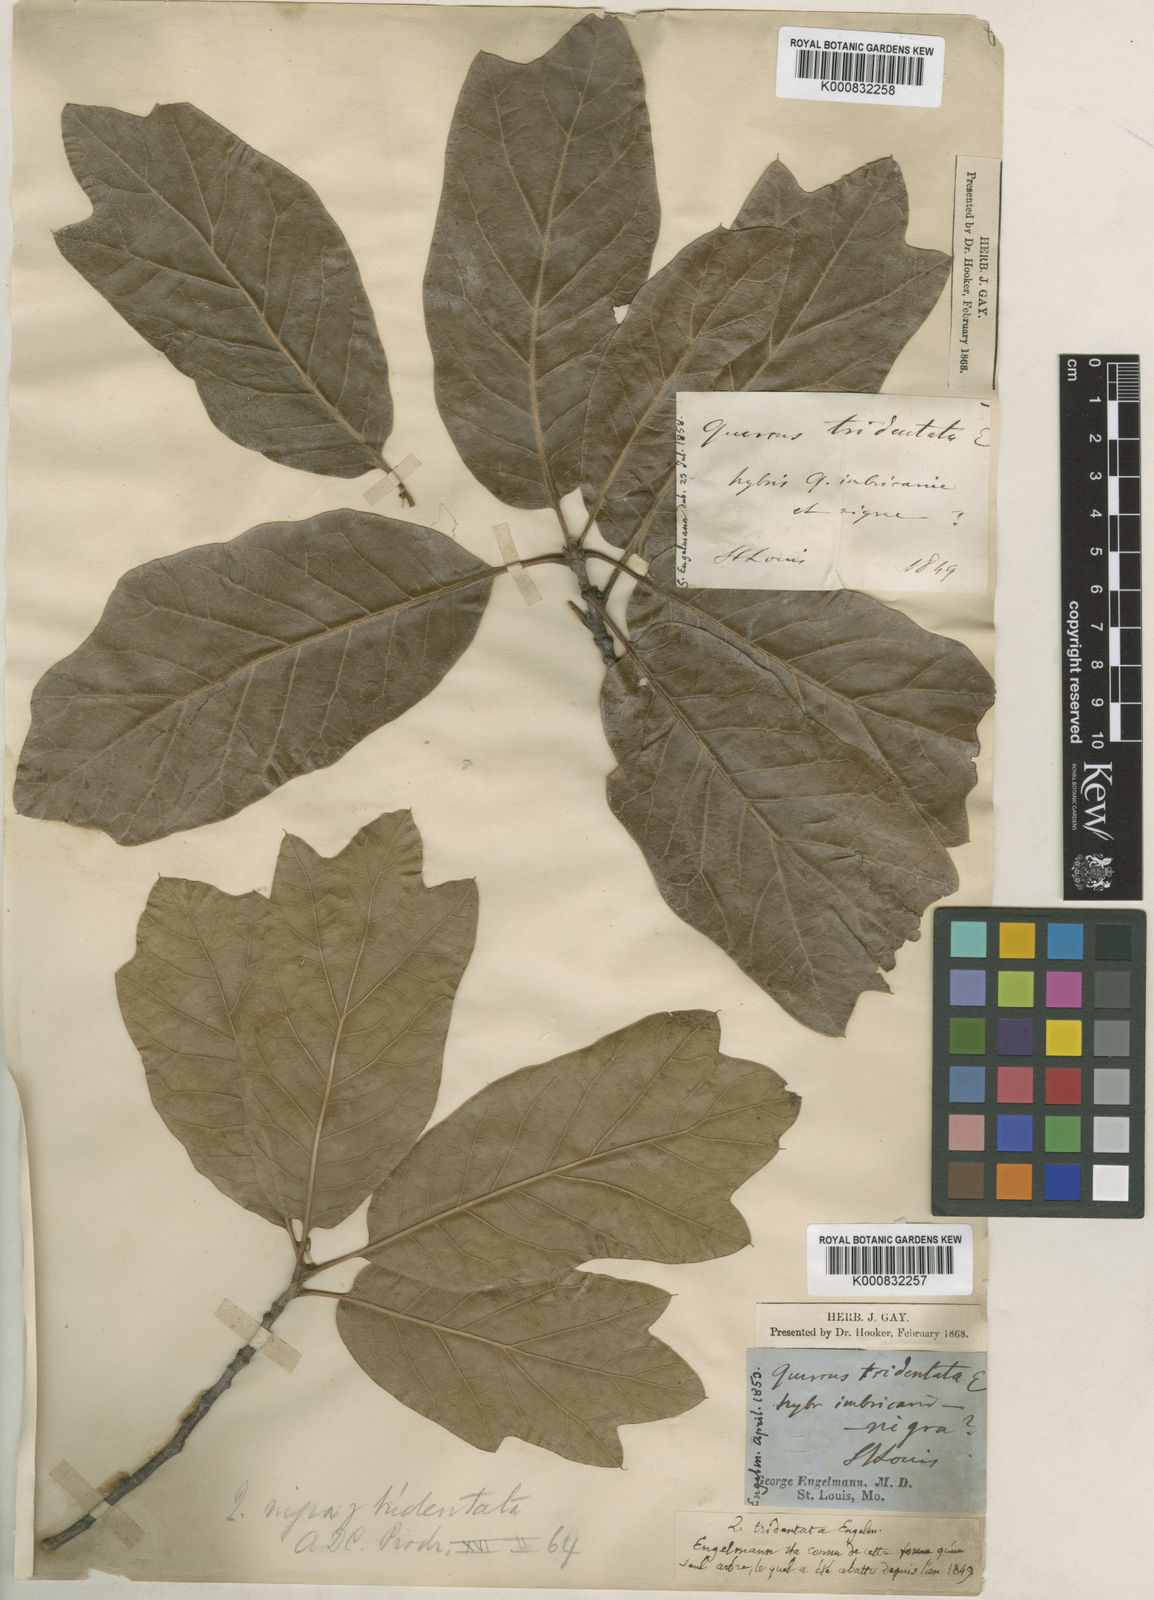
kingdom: Plantae
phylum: Tracheophyta
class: Magnoliopsida
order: Fagales
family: Fagaceae
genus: Quercus
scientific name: Quercus imbricaria
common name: Shingle oak
